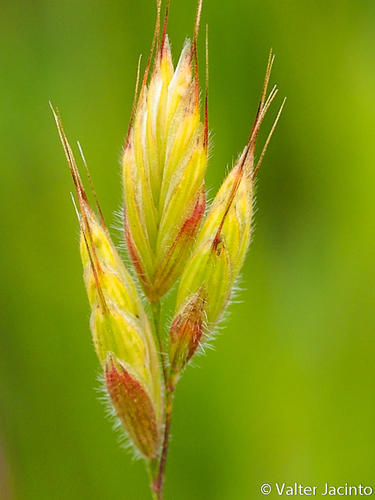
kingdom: Plantae
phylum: Tracheophyta
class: Liliopsida
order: Poales
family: Poaceae
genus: Bromus
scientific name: Bromus hordeaceus
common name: Soft brome
